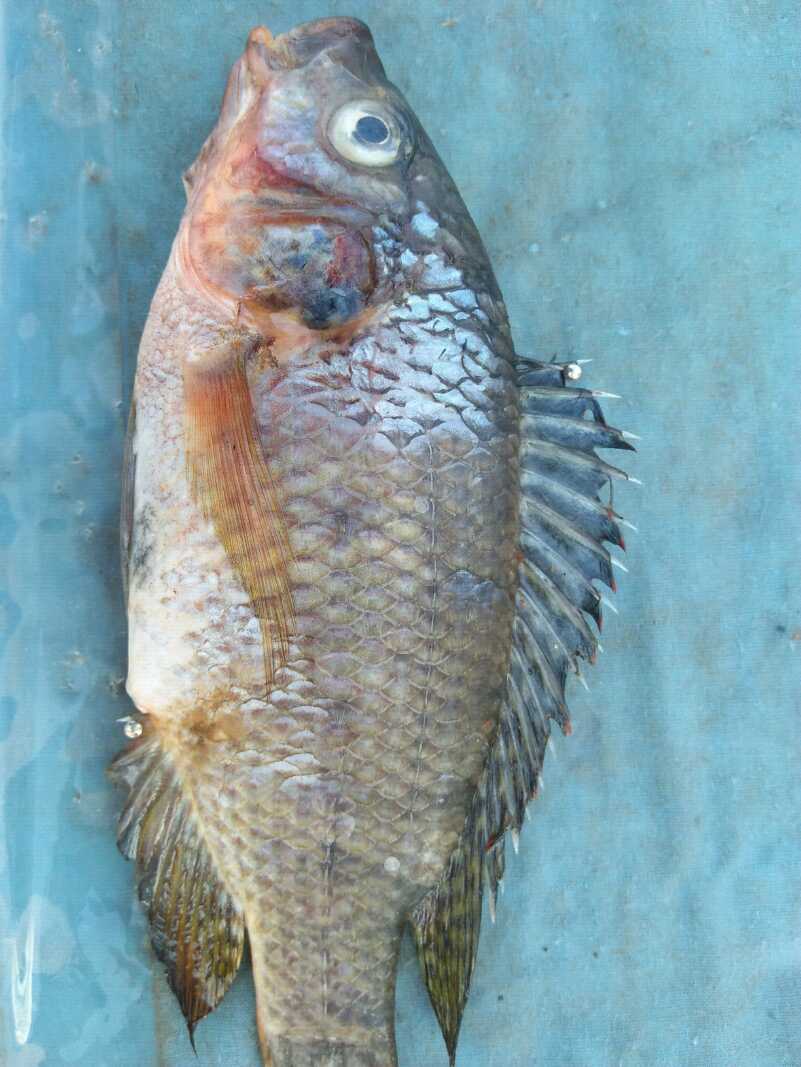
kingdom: Animalia
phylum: Chordata
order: Perciformes
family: Cichlidae
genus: Oreochromis
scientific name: Oreochromis spilurus
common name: Sabaki tilapia
